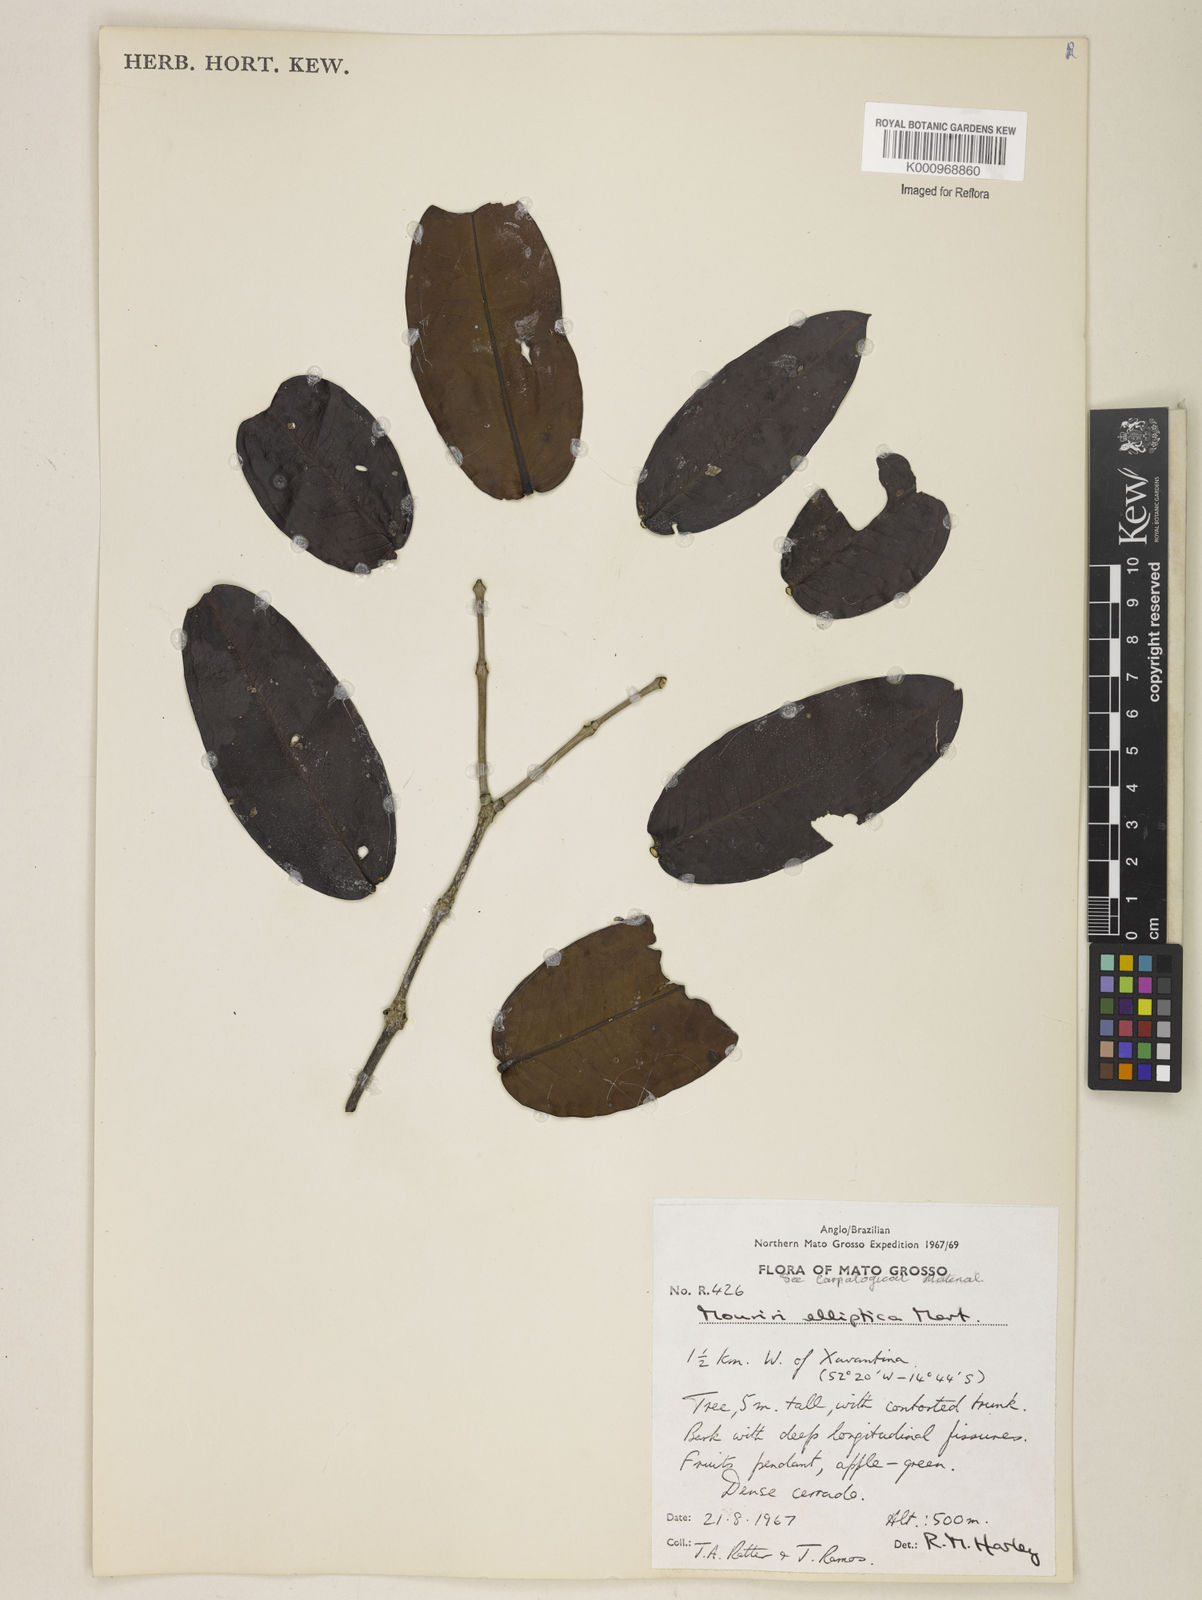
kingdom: Plantae
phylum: Tracheophyta
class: Magnoliopsida
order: Myrtales
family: Melastomataceae
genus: Mouriri
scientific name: Mouriri elliptica
